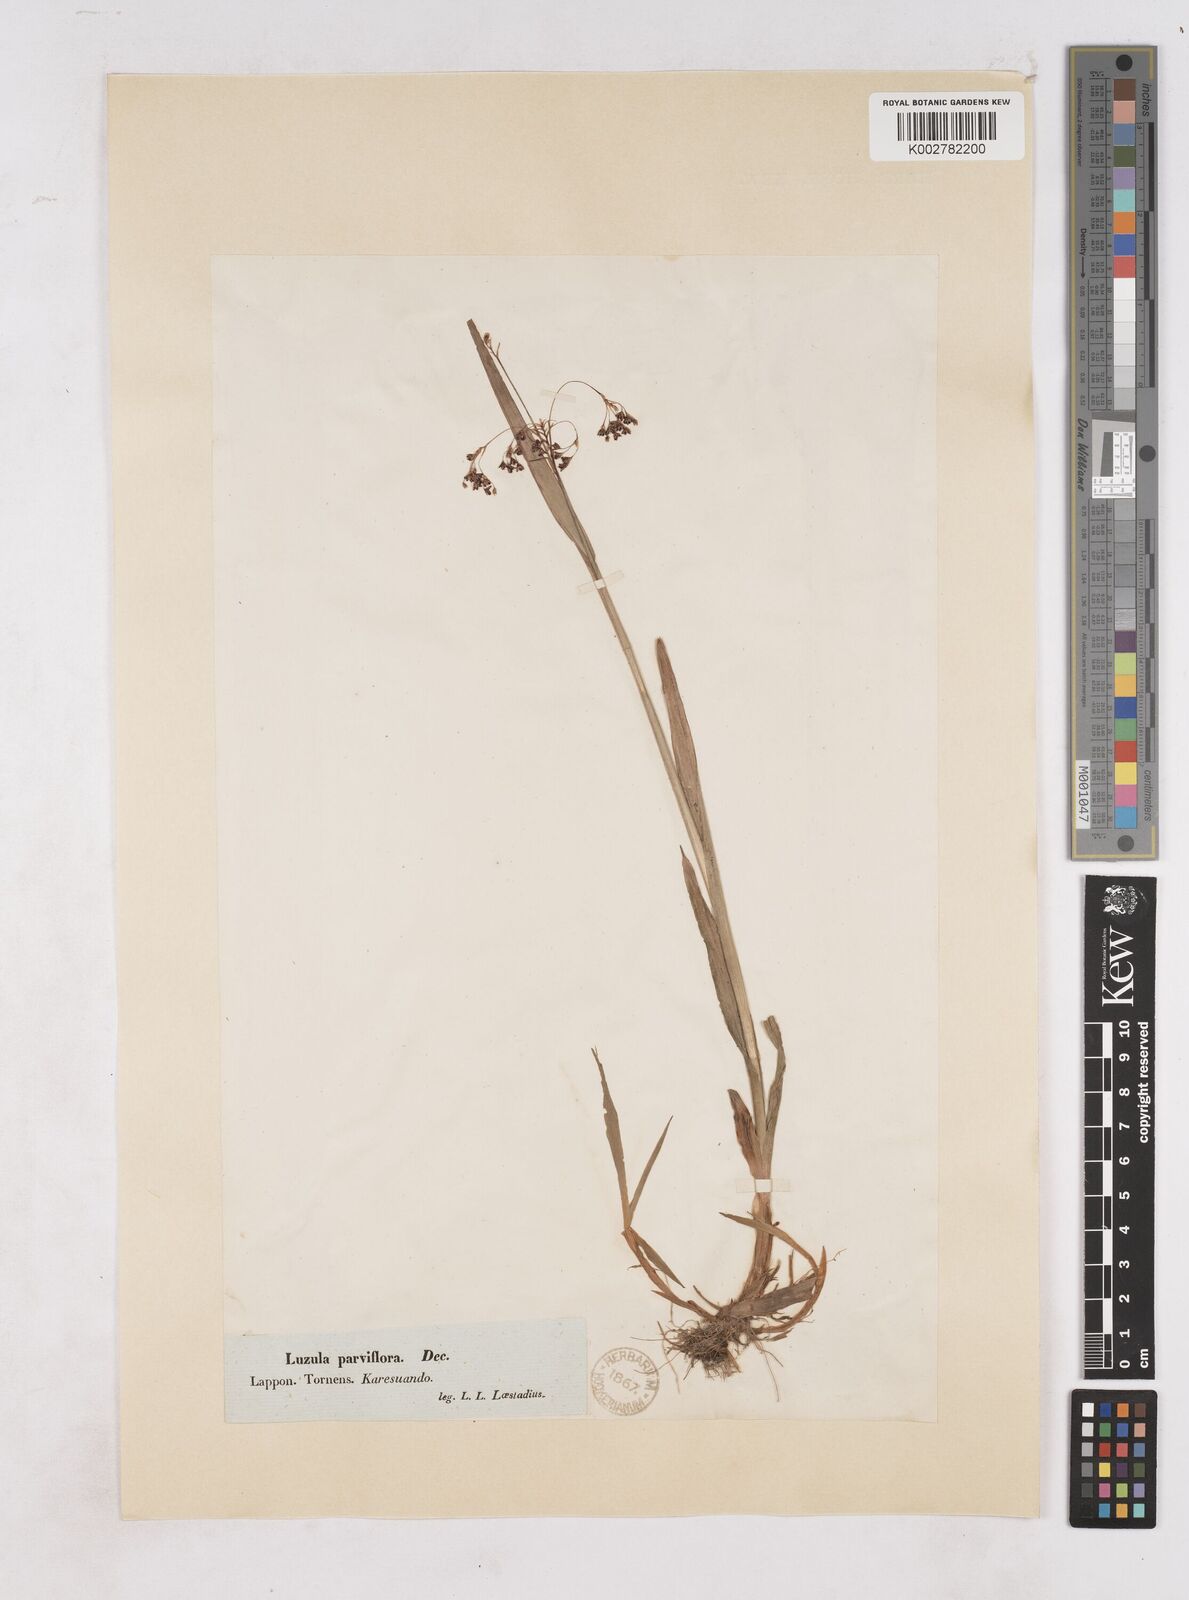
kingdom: Plantae
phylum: Tracheophyta
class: Liliopsida
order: Poales
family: Juncaceae
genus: Luzula
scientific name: Luzula parviflora
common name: Millet woodrush
